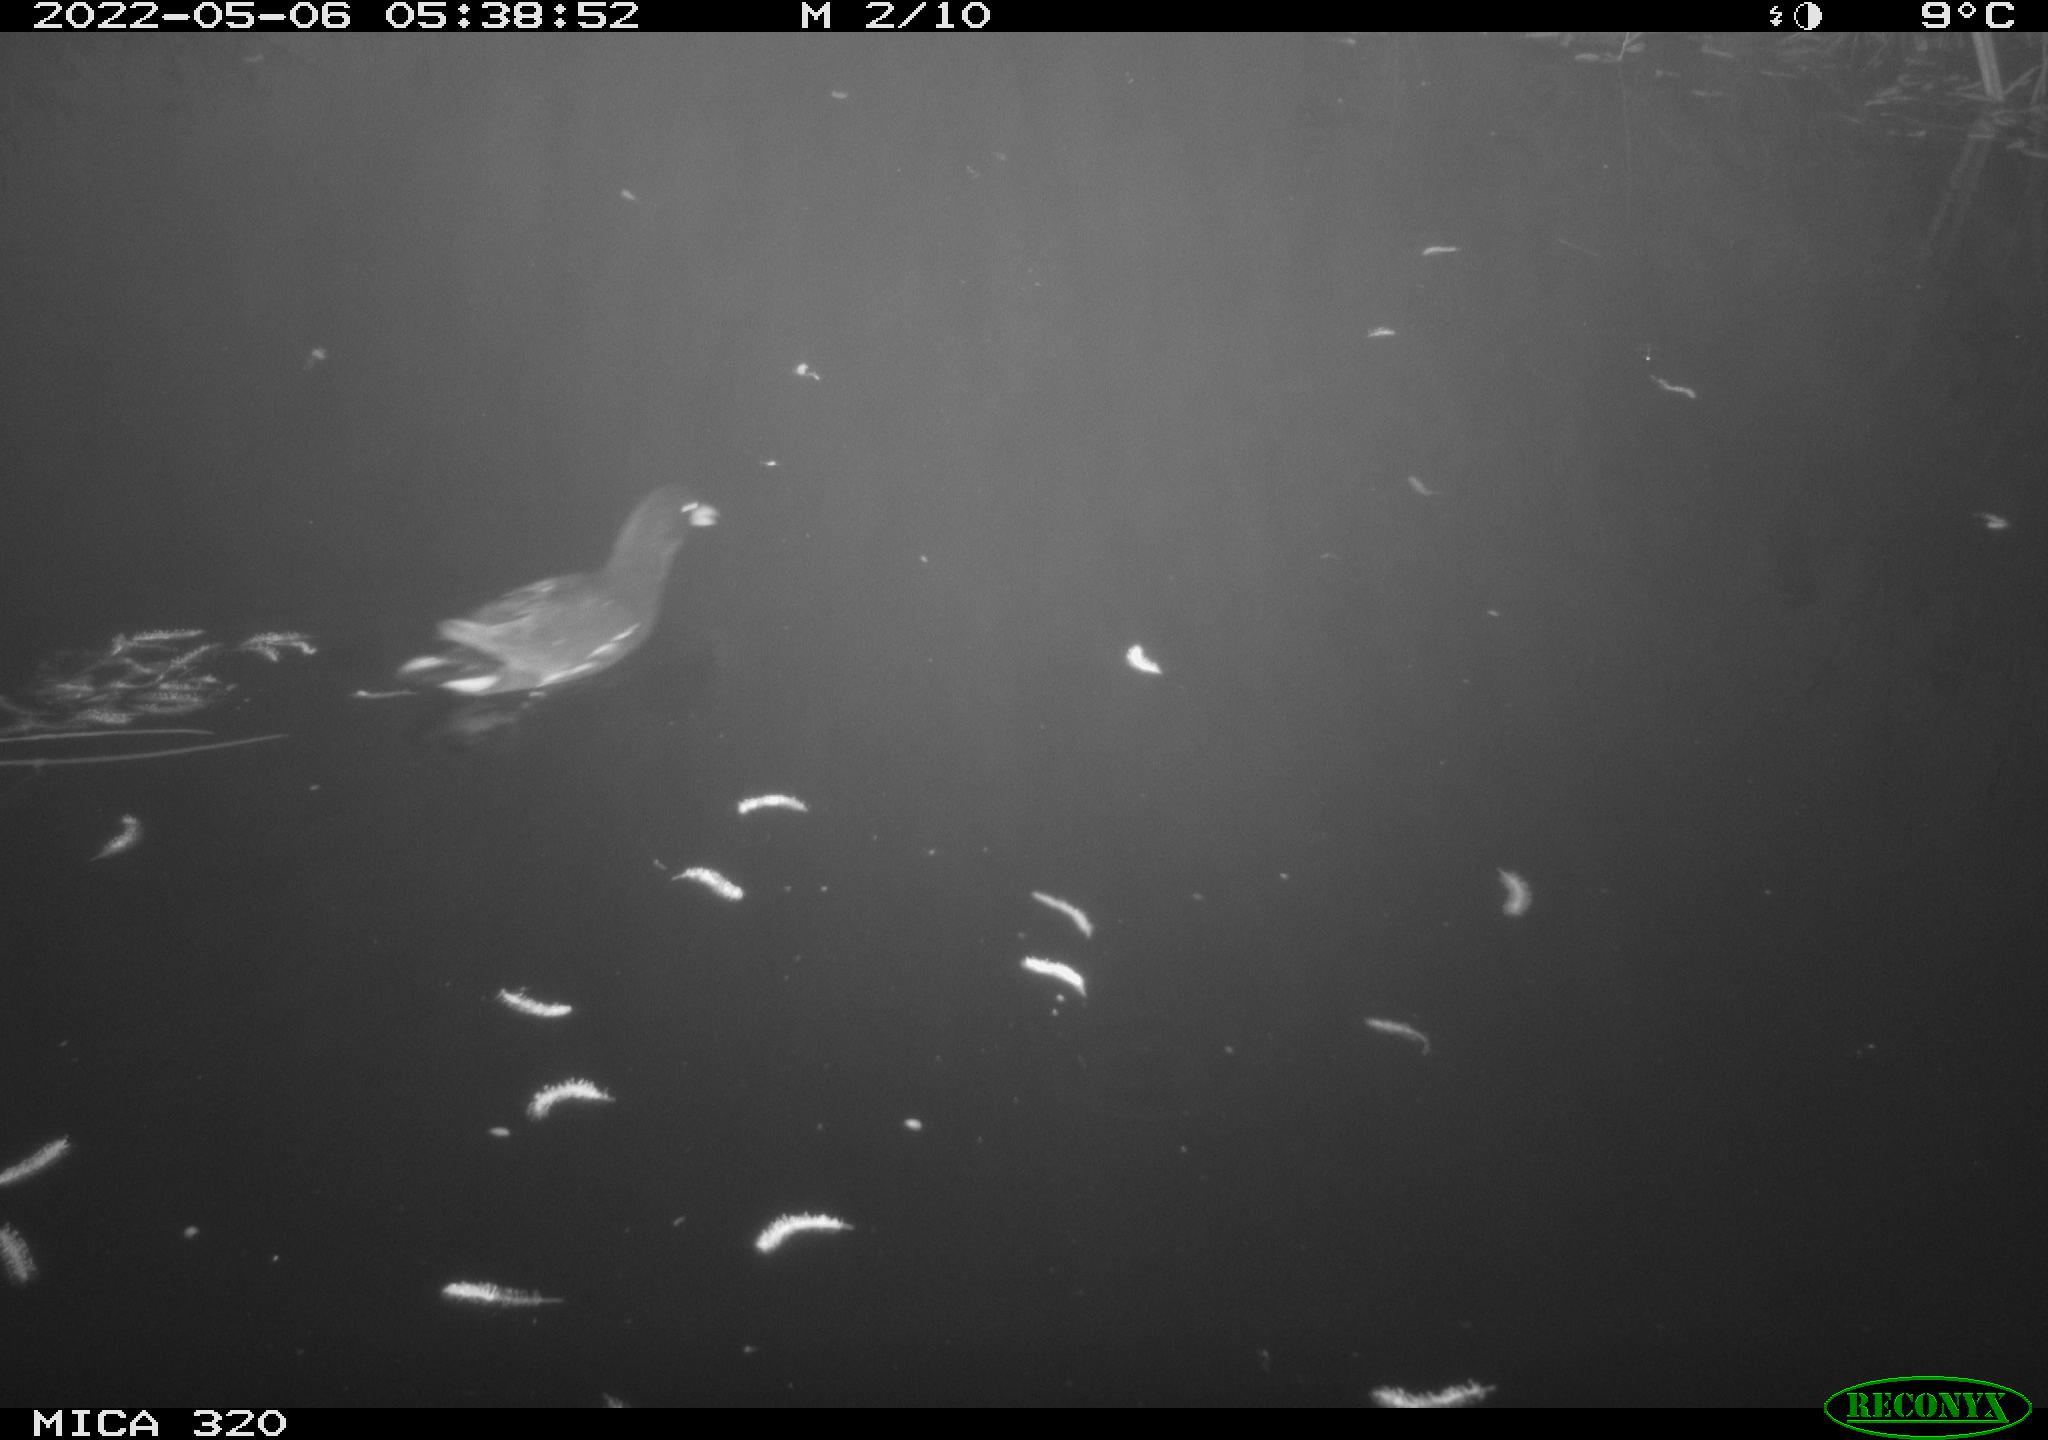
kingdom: Animalia
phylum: Chordata
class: Aves
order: Gruiformes
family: Rallidae
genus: Gallinula
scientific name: Gallinula chloropus
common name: Common moorhen
